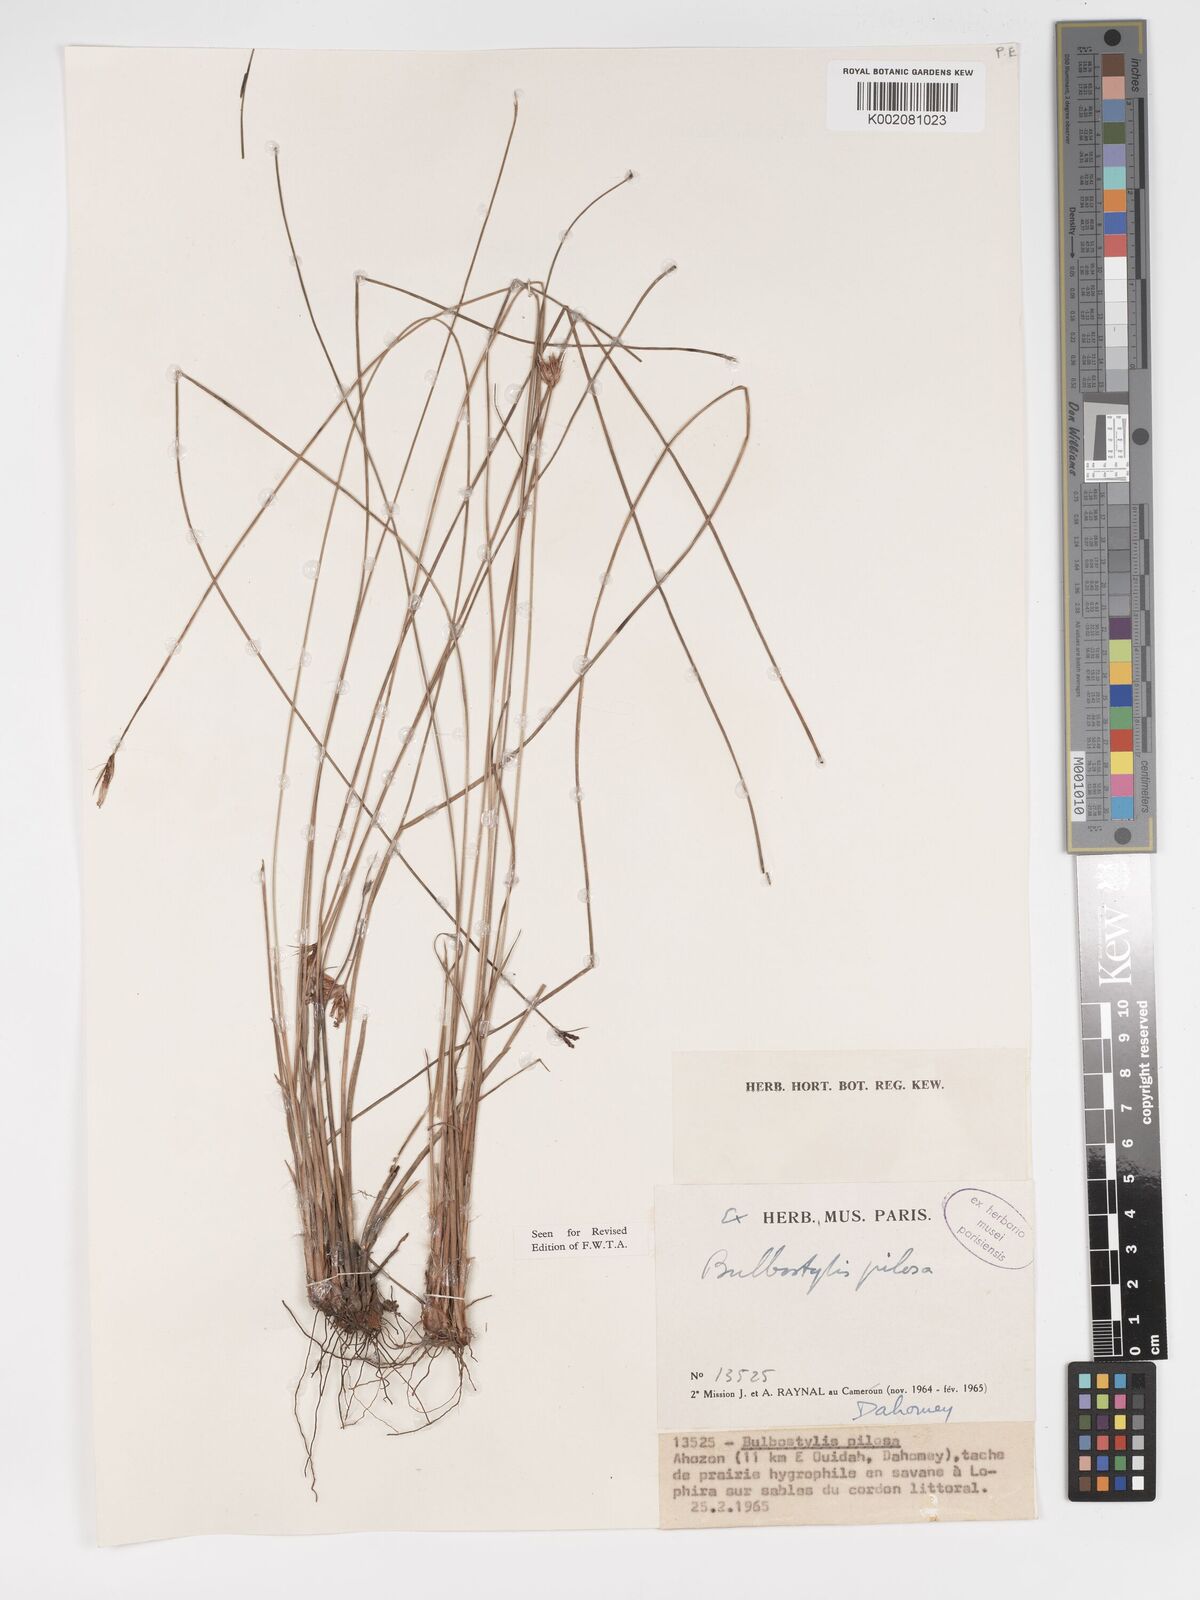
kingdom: Plantae
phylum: Tracheophyta
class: Liliopsida
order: Poales
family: Cyperaceae
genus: Bulbostylis
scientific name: Bulbostylis pilosa
